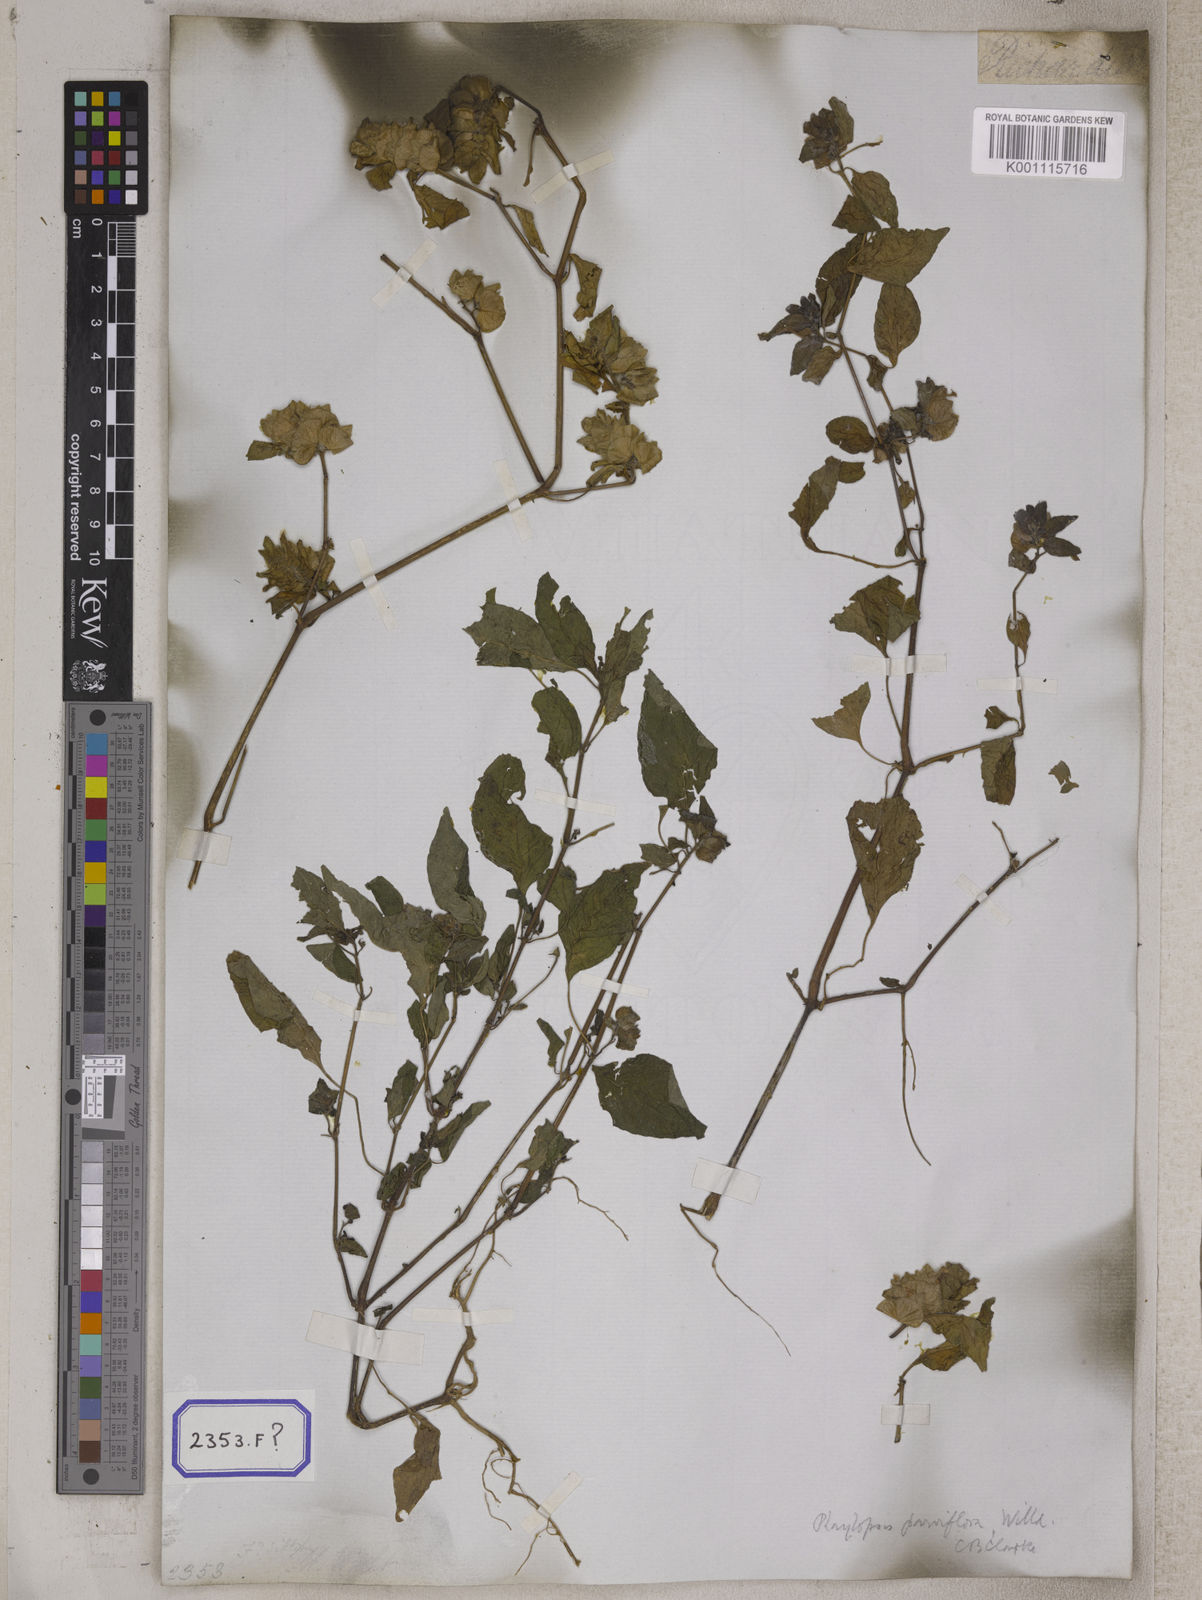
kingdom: Plantae
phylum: Tracheophyta
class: Magnoliopsida
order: Lamiales
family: Acanthaceae
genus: Phaulopsis
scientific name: Phaulopsis imbricata
